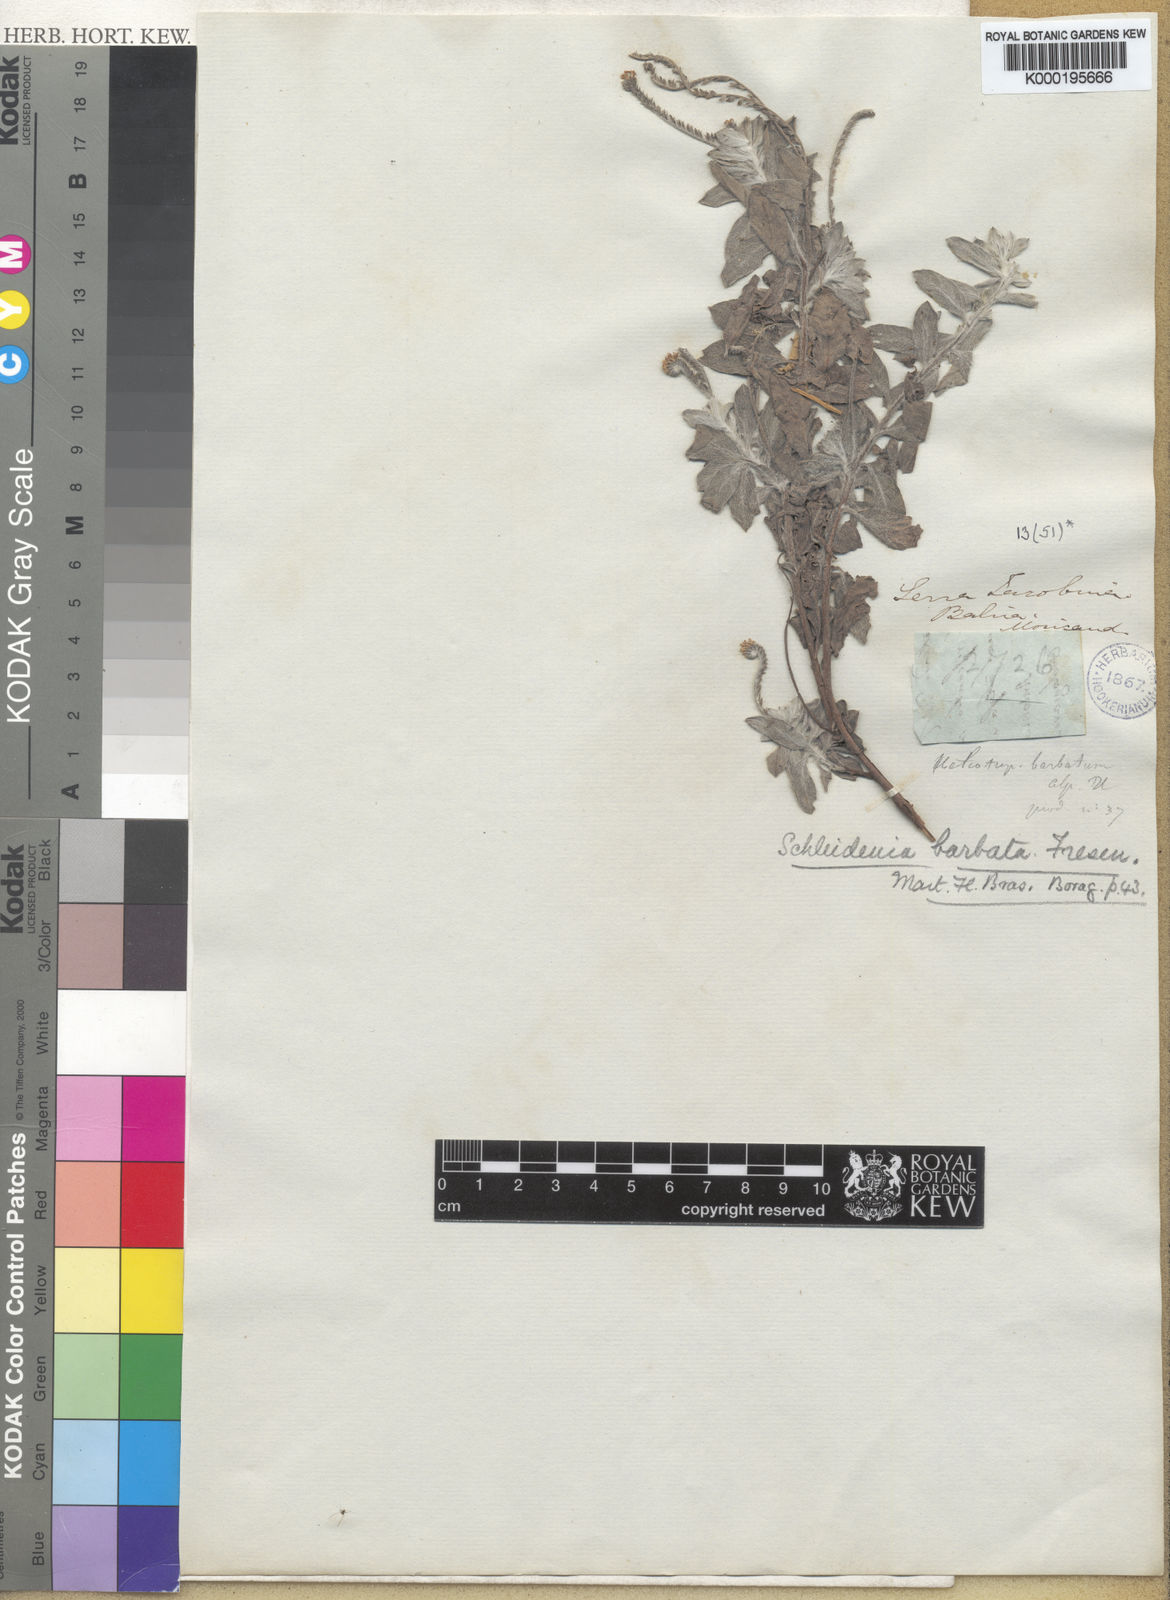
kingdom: Plantae
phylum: Tracheophyta
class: Magnoliopsida
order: Boraginales
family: Heliotropiaceae
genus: Euploca
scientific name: Euploca barbata
